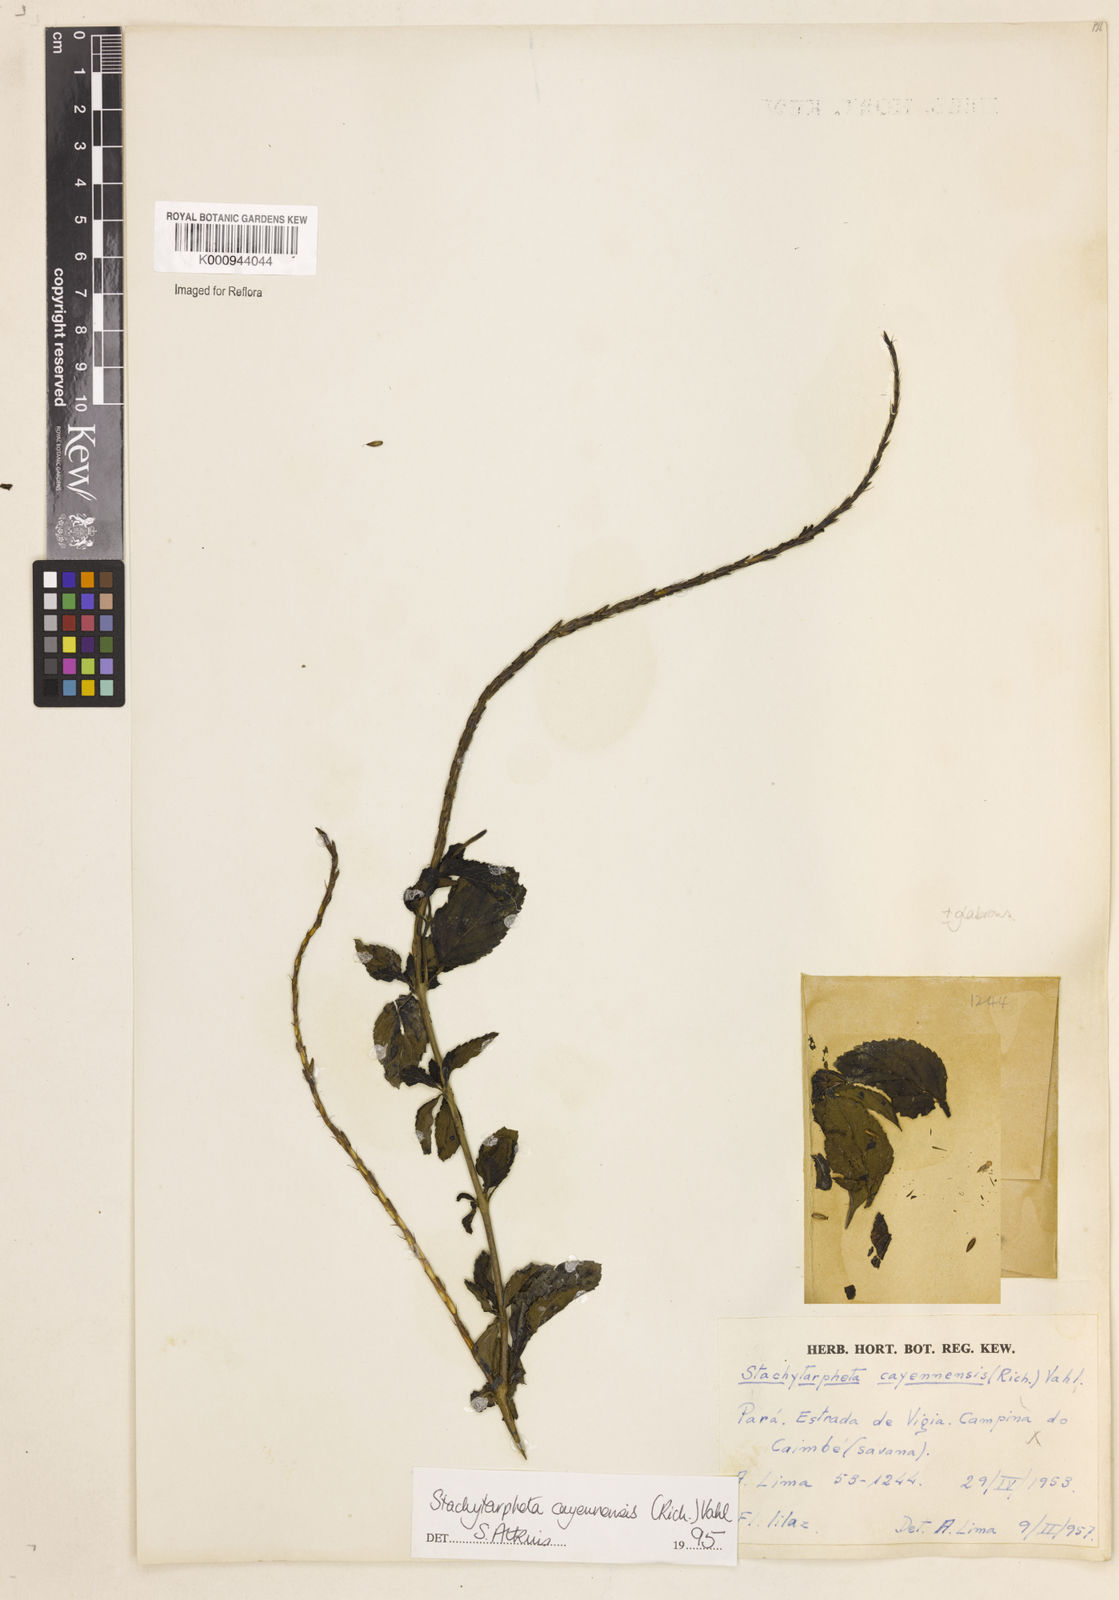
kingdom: Plantae
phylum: Tracheophyta
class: Magnoliopsida
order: Lamiales
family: Verbenaceae
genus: Aloysia
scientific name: Aloysia
